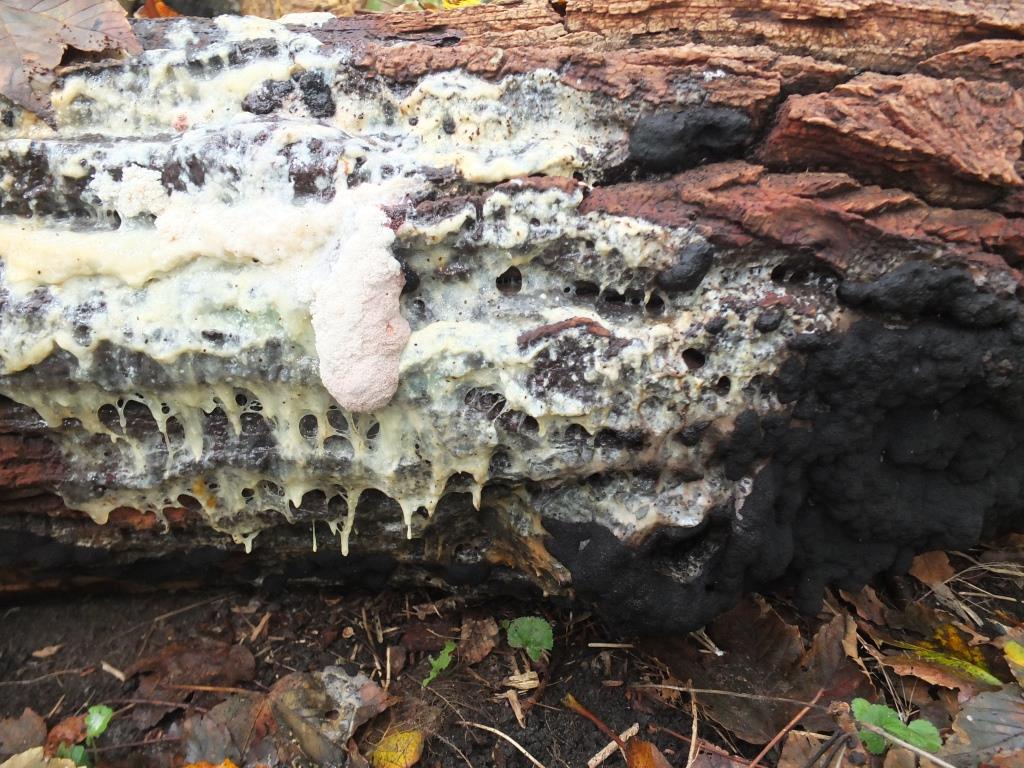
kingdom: Protozoa
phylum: Mycetozoa
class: Myxomycetes
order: Stemonitidales
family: Stemonitidaceae
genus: Brefeldia
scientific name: Brefeldia maxima
